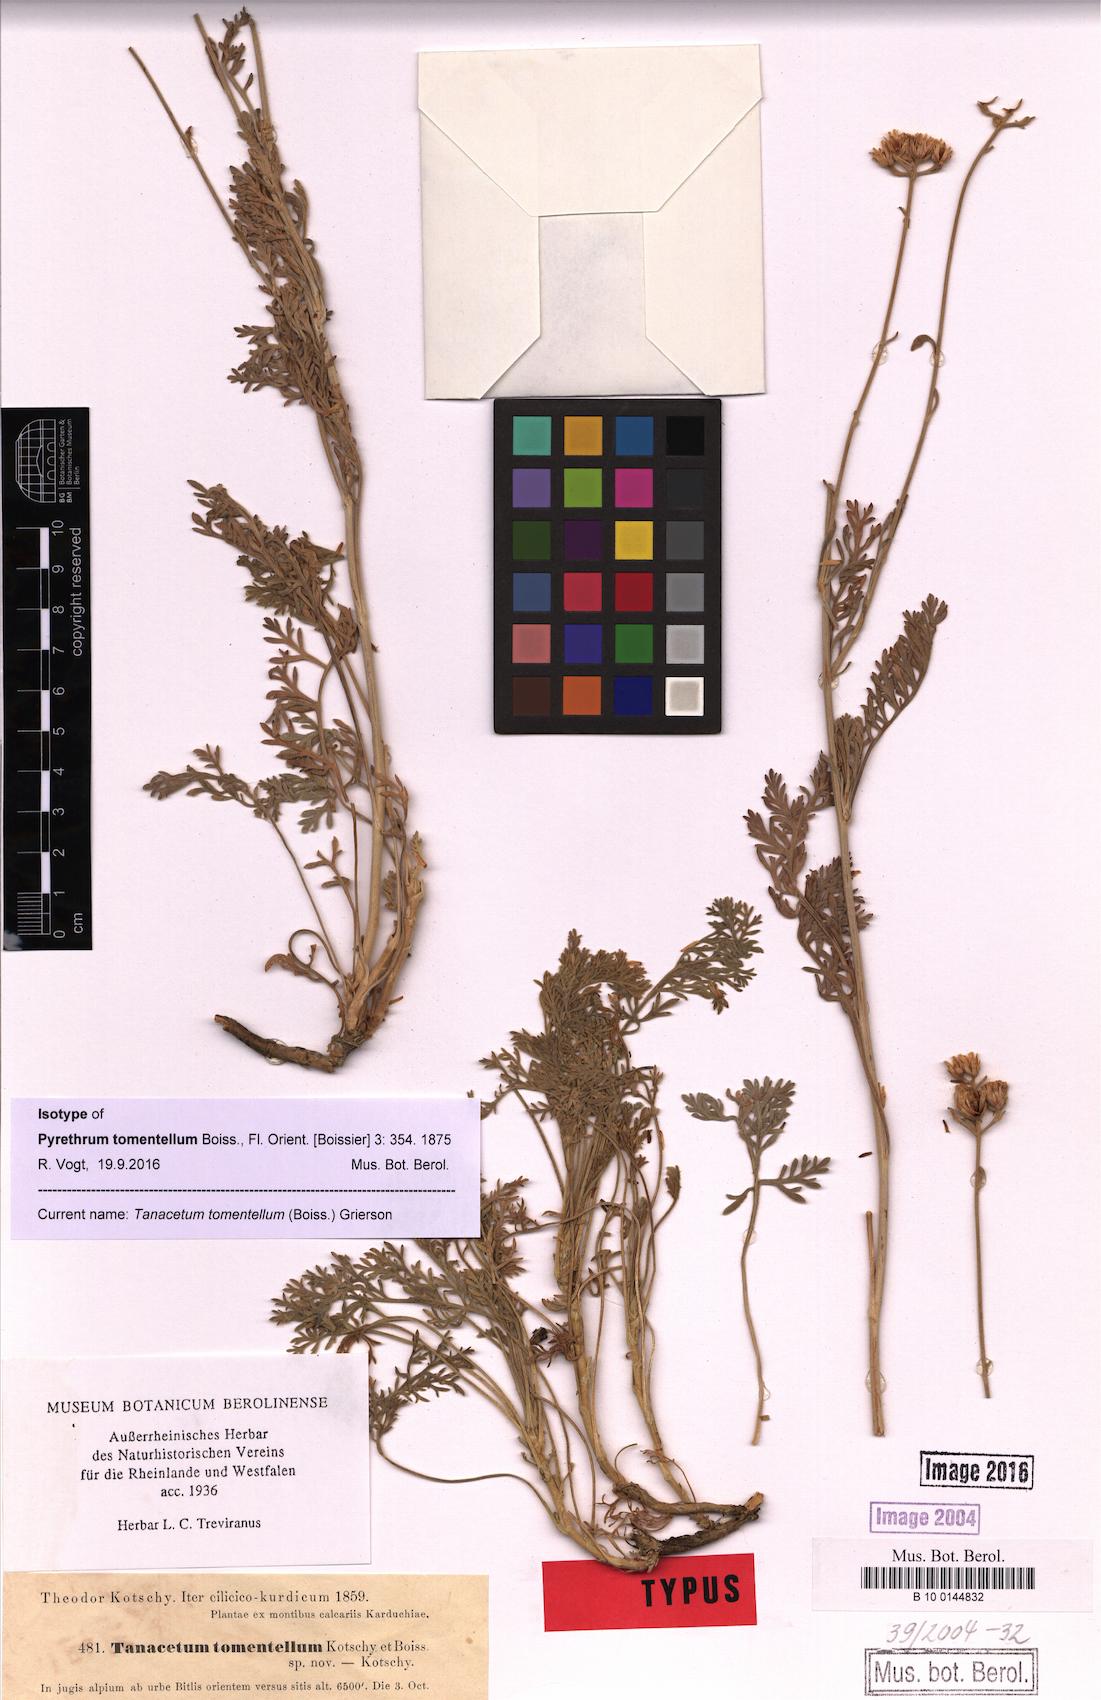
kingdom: Plantae
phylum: Tracheophyta
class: Magnoliopsida
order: Asterales
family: Asteraceae
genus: Tanacetum
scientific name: Tanacetum tomentellum
